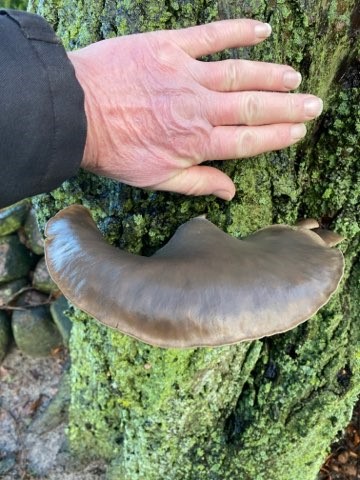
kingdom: Fungi
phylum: Basidiomycota
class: Agaricomycetes
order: Agaricales
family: Pleurotaceae
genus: Pleurotus
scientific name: Pleurotus ostreatus
